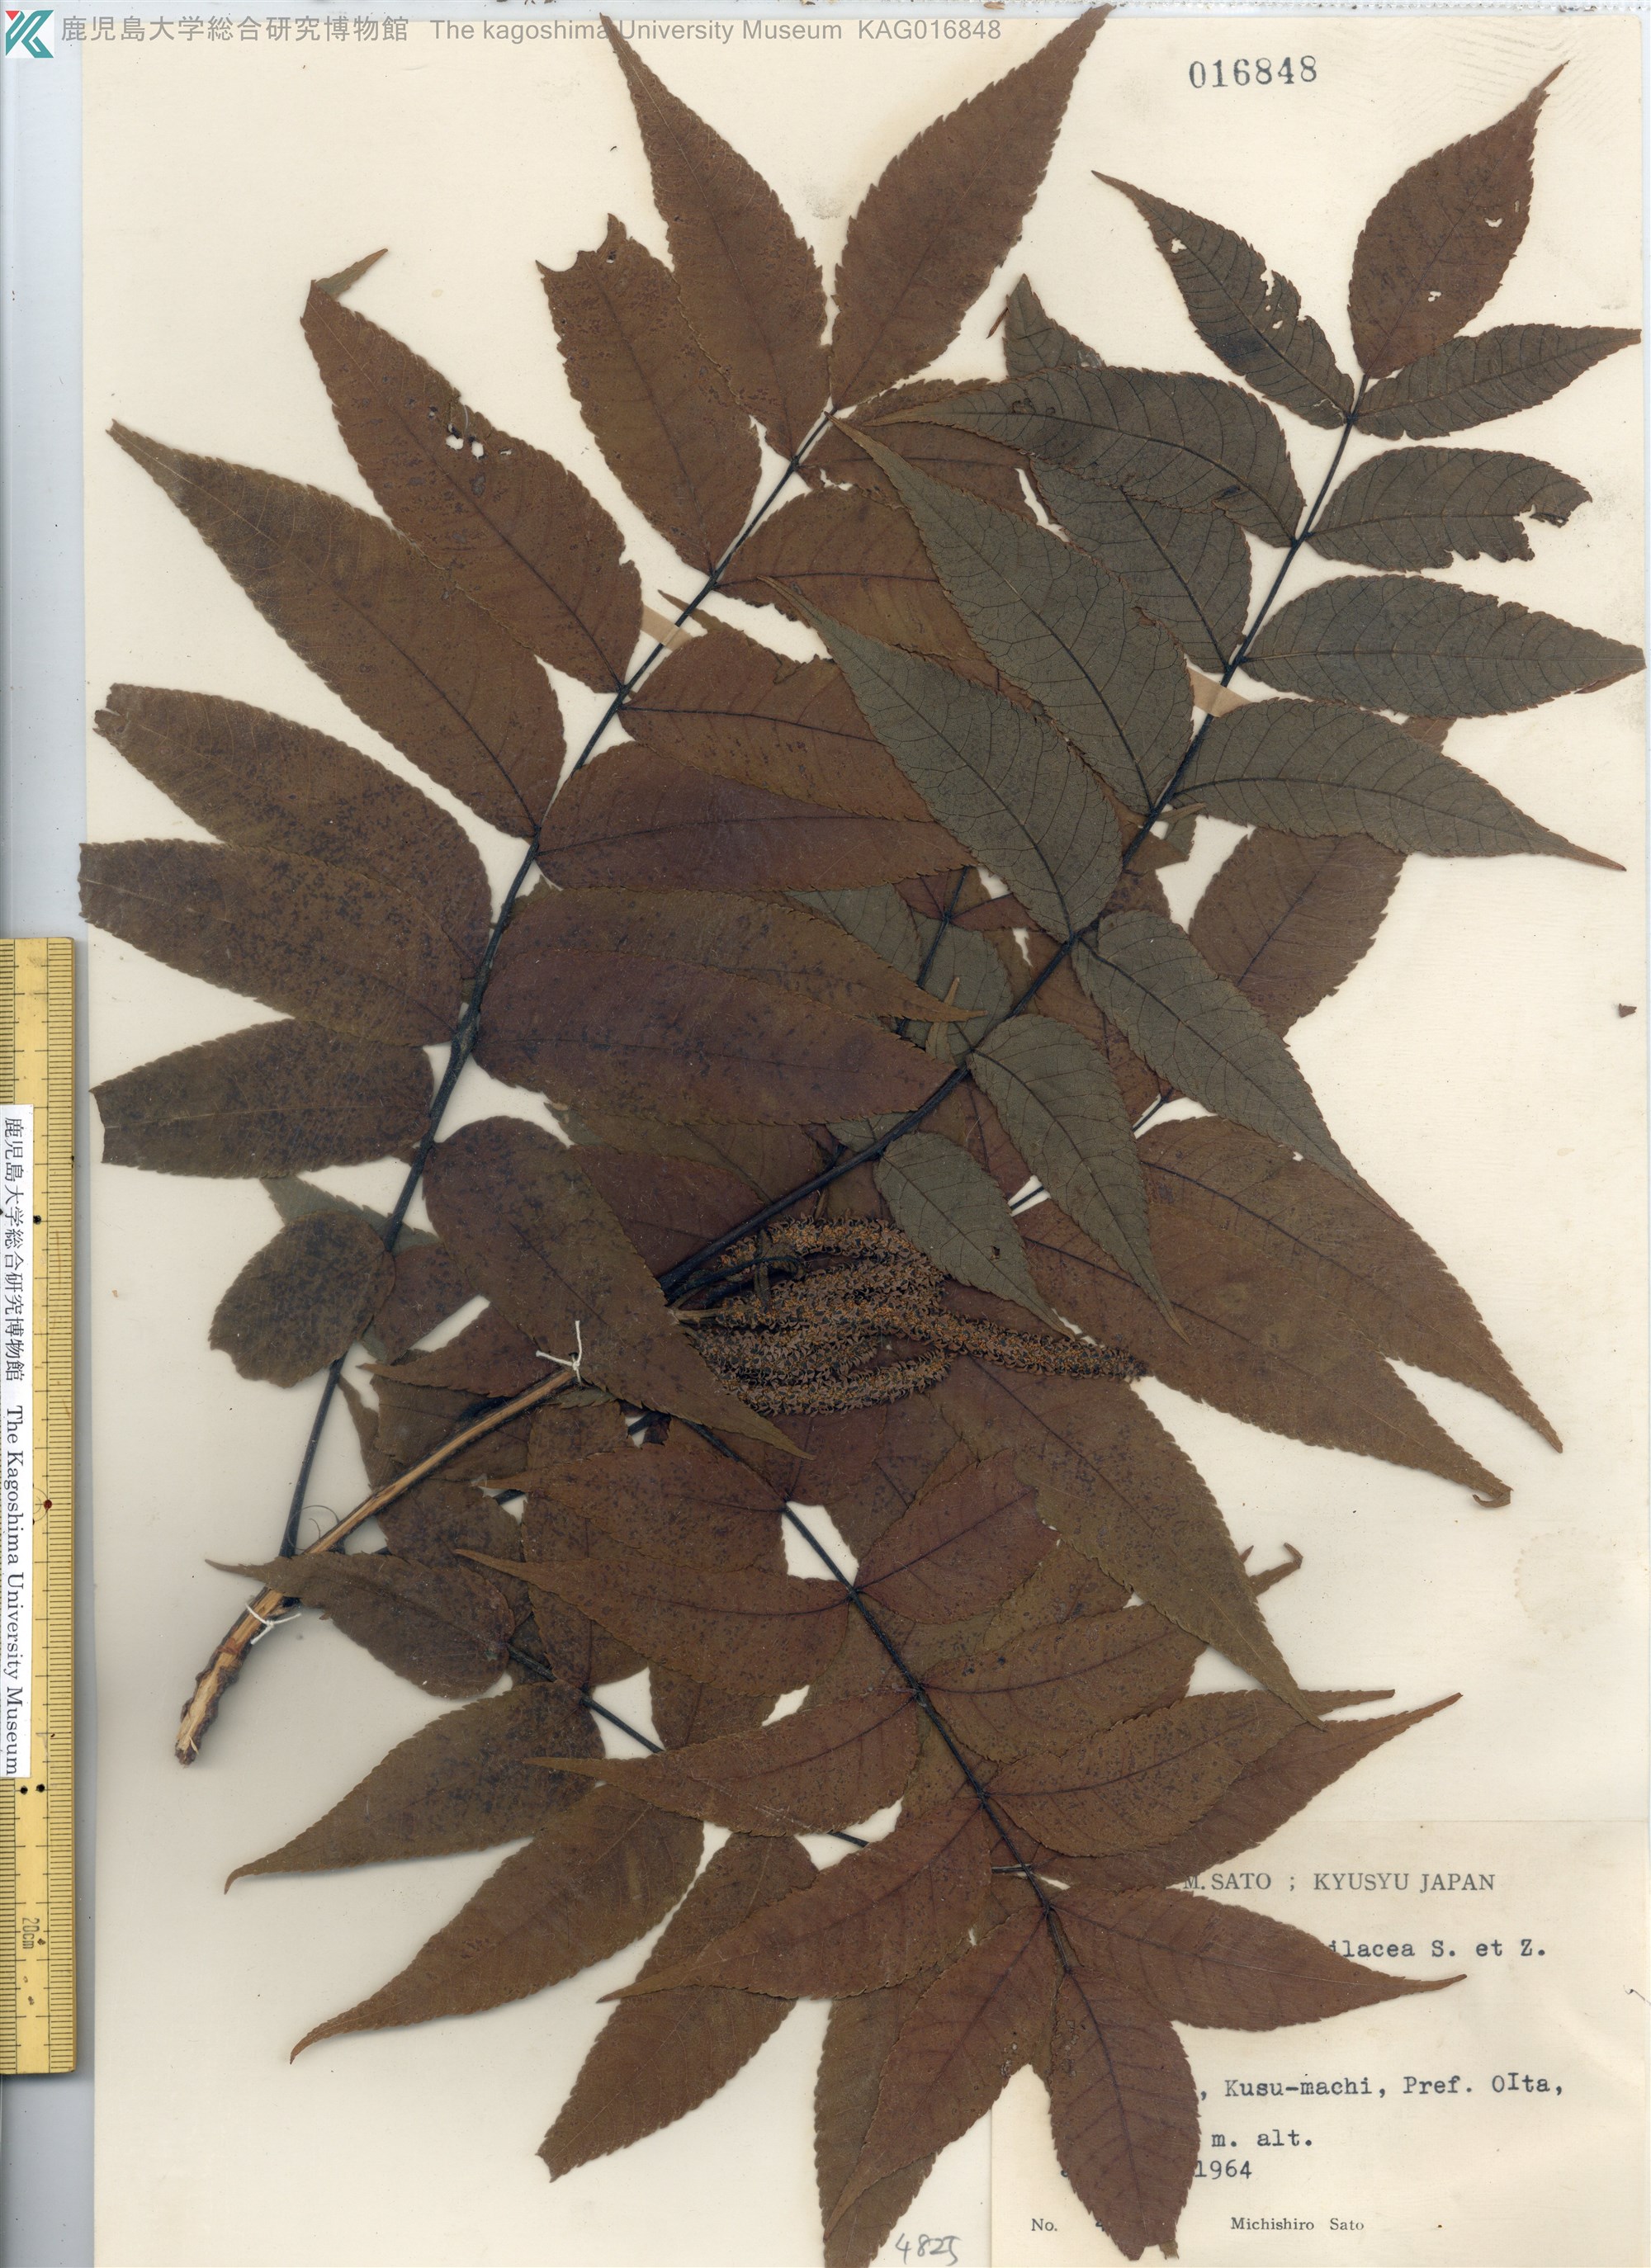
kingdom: Plantae
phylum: Tracheophyta
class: Magnoliopsida
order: Fagales
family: Juglandaceae
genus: Platycarya
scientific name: Platycarya strobilacea
